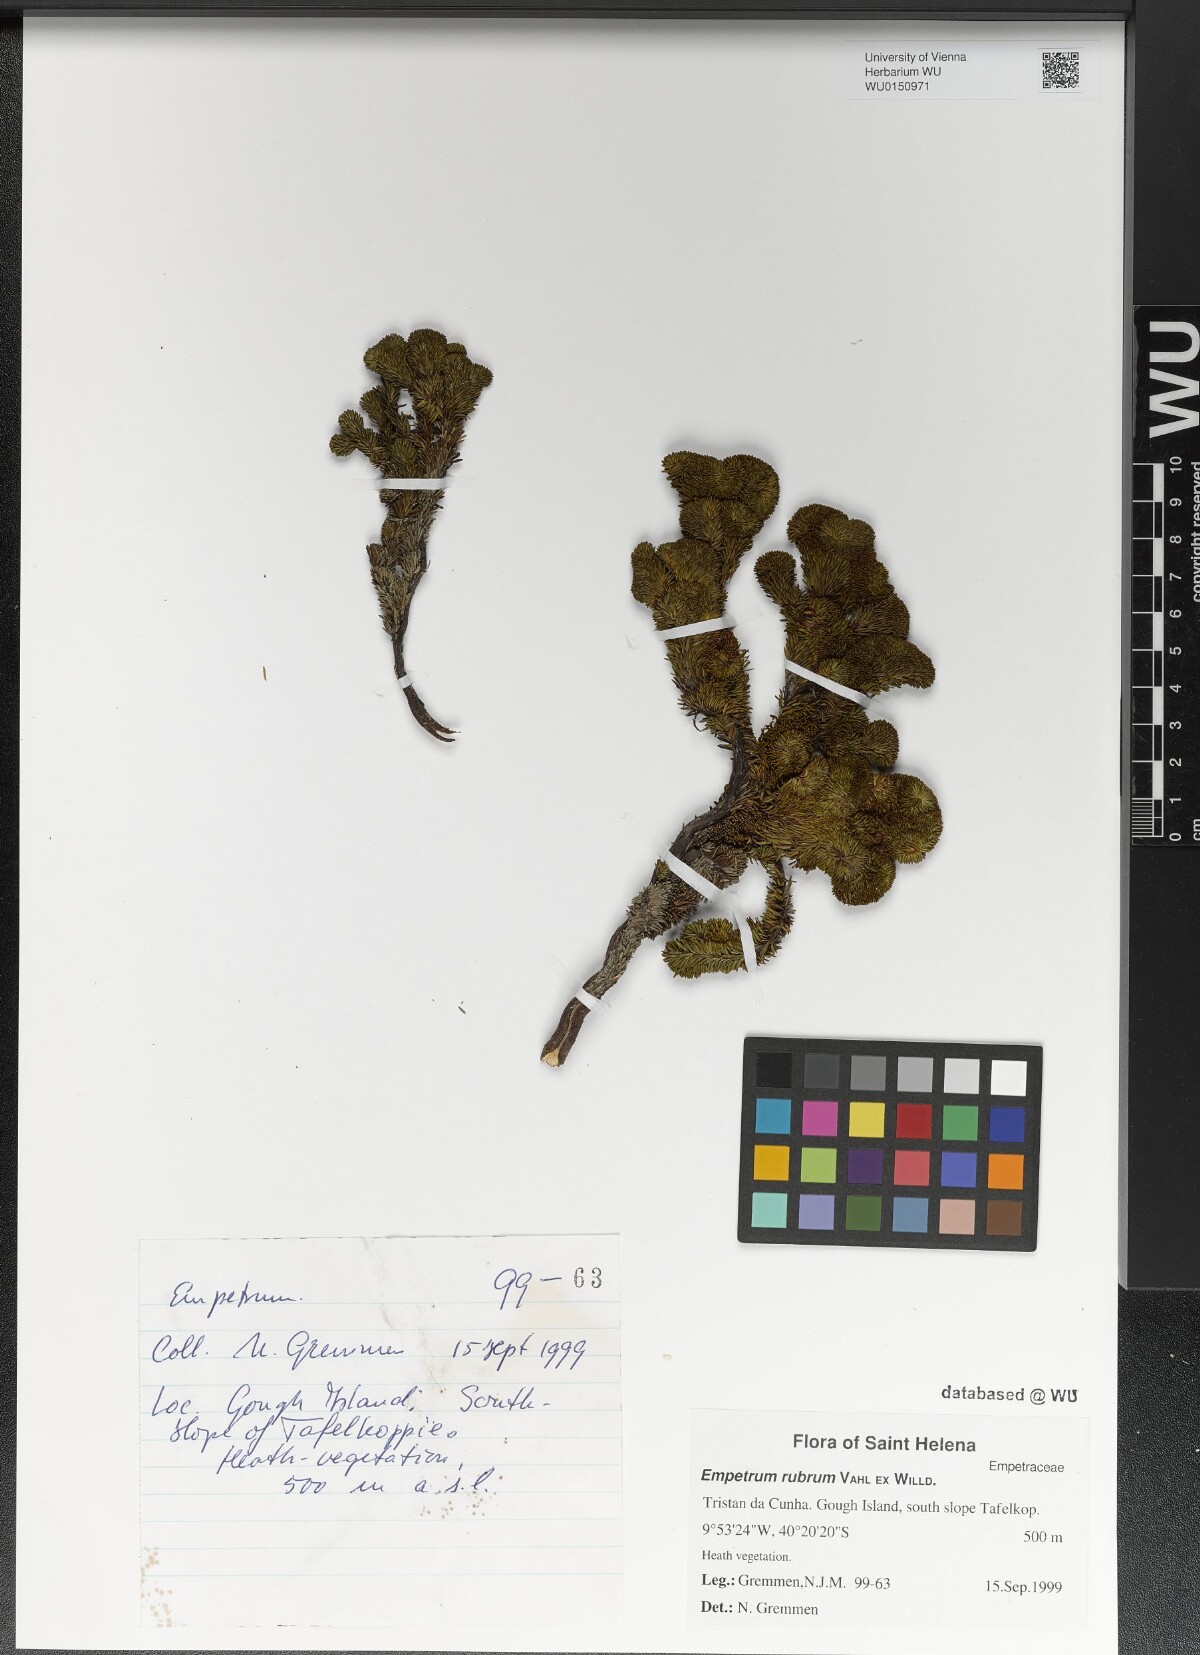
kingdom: Plantae
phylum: Tracheophyta
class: Magnoliopsida
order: Ericales
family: Ericaceae
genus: Empetrum
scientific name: Empetrum rubrum
